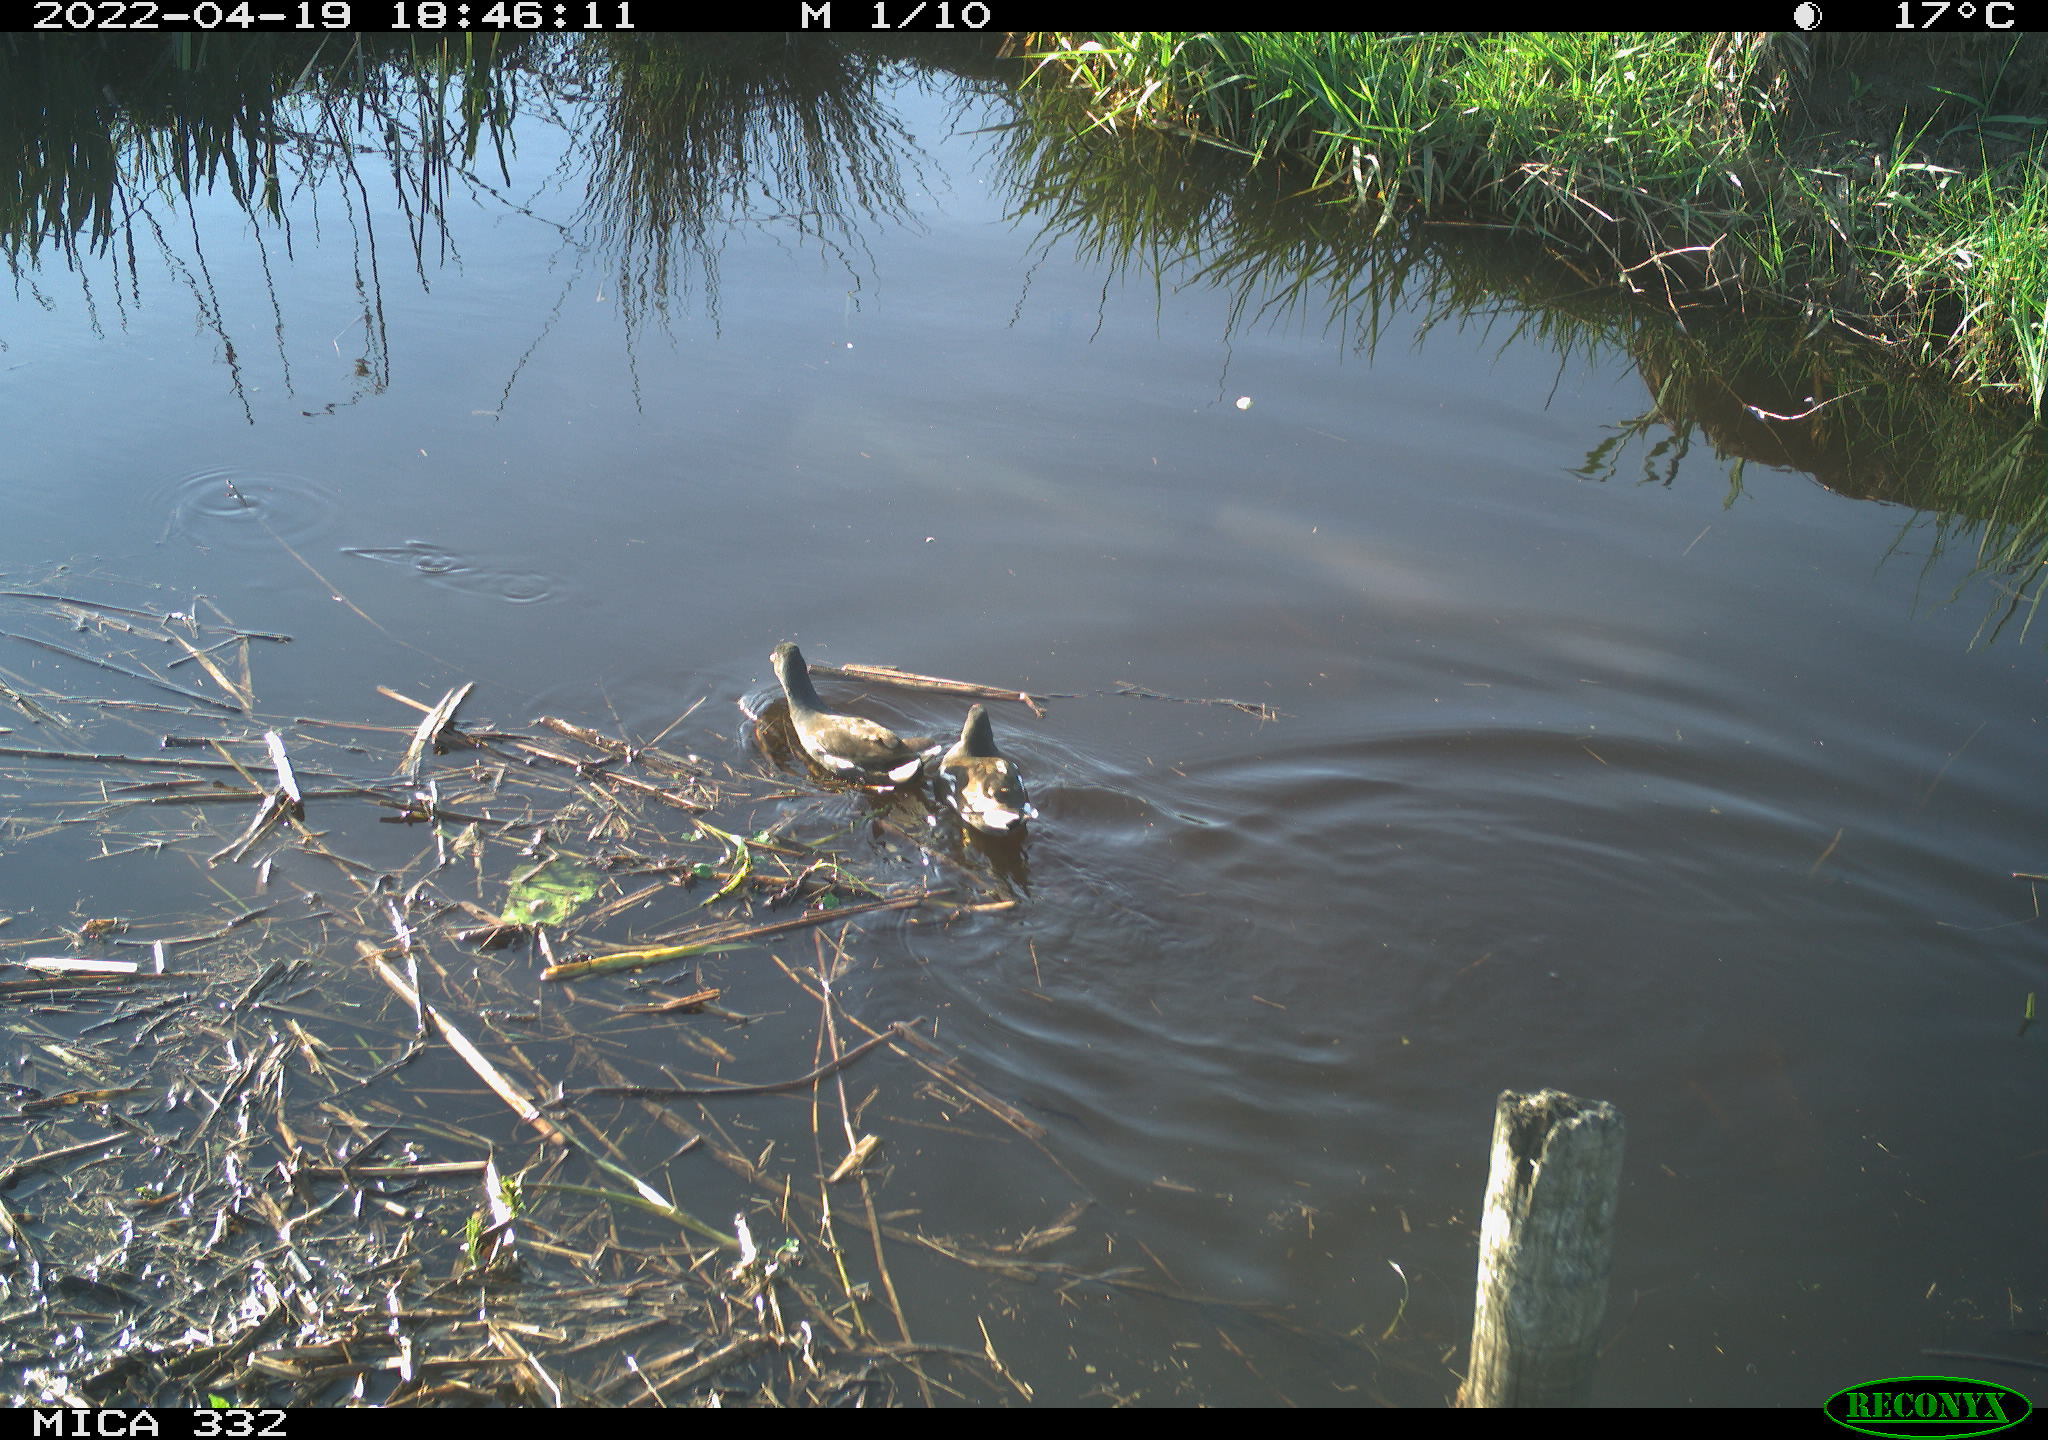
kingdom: Animalia
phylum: Chordata
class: Aves
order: Gruiformes
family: Rallidae
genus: Gallinula
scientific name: Gallinula chloropus
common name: Common moorhen
